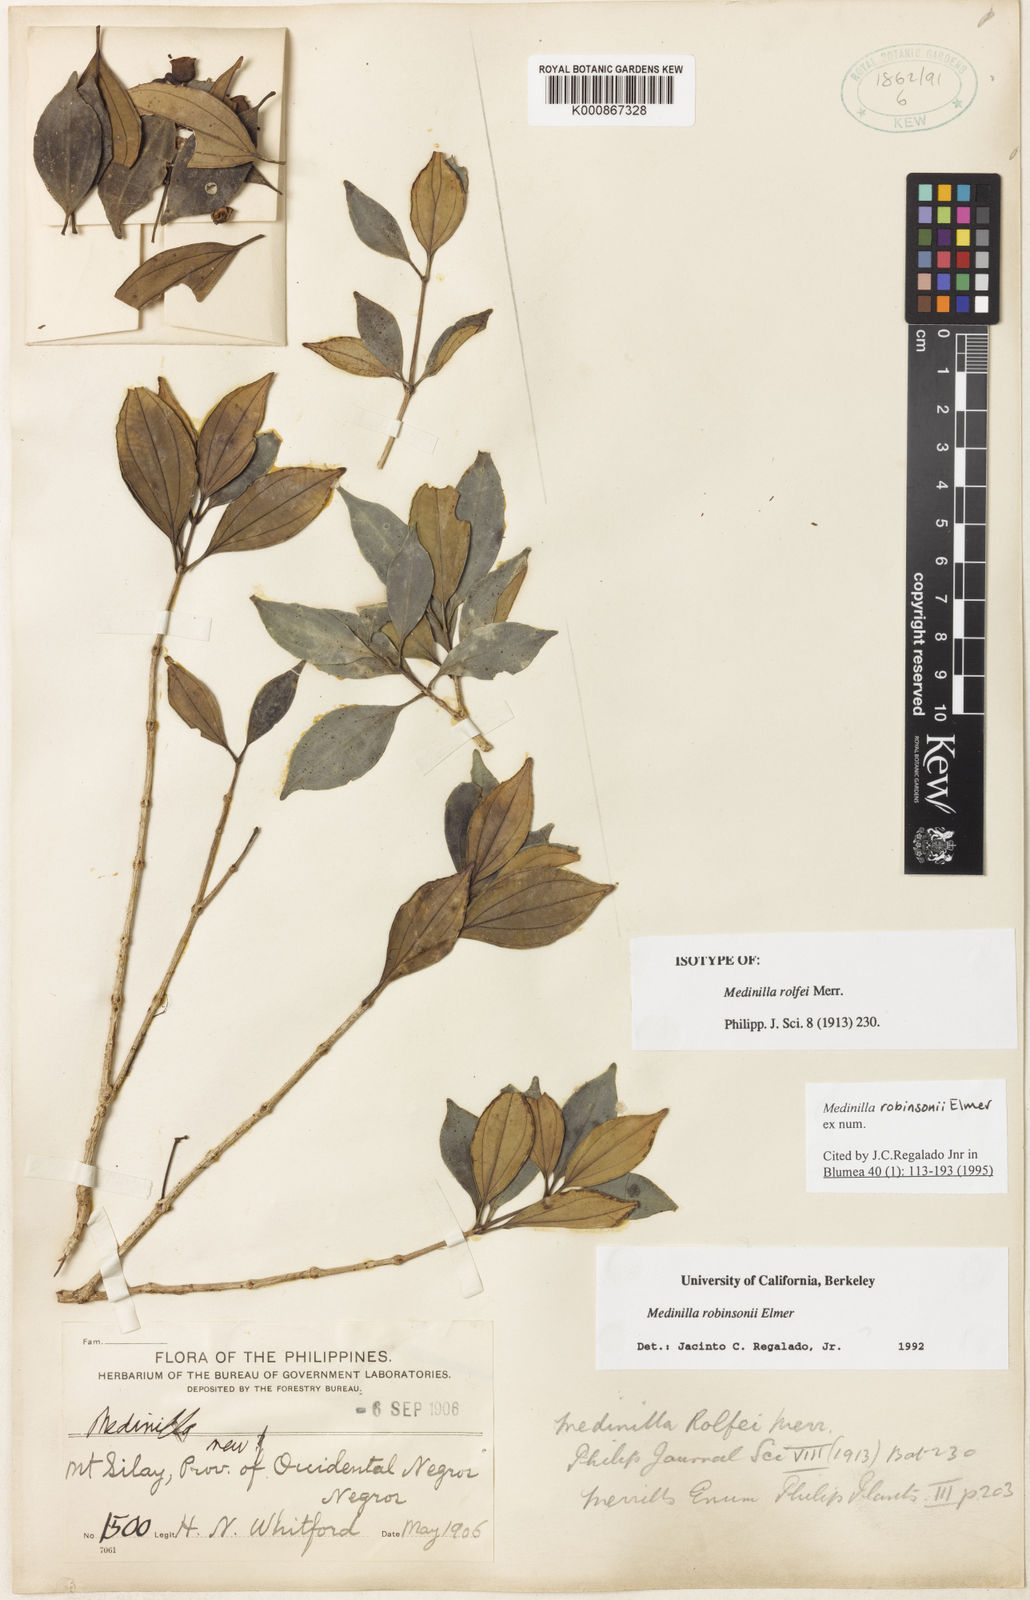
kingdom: Plantae
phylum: Tracheophyta
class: Magnoliopsida
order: Myrtales
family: Melastomataceae
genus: Medinilla
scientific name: Medinilla robinsonii
